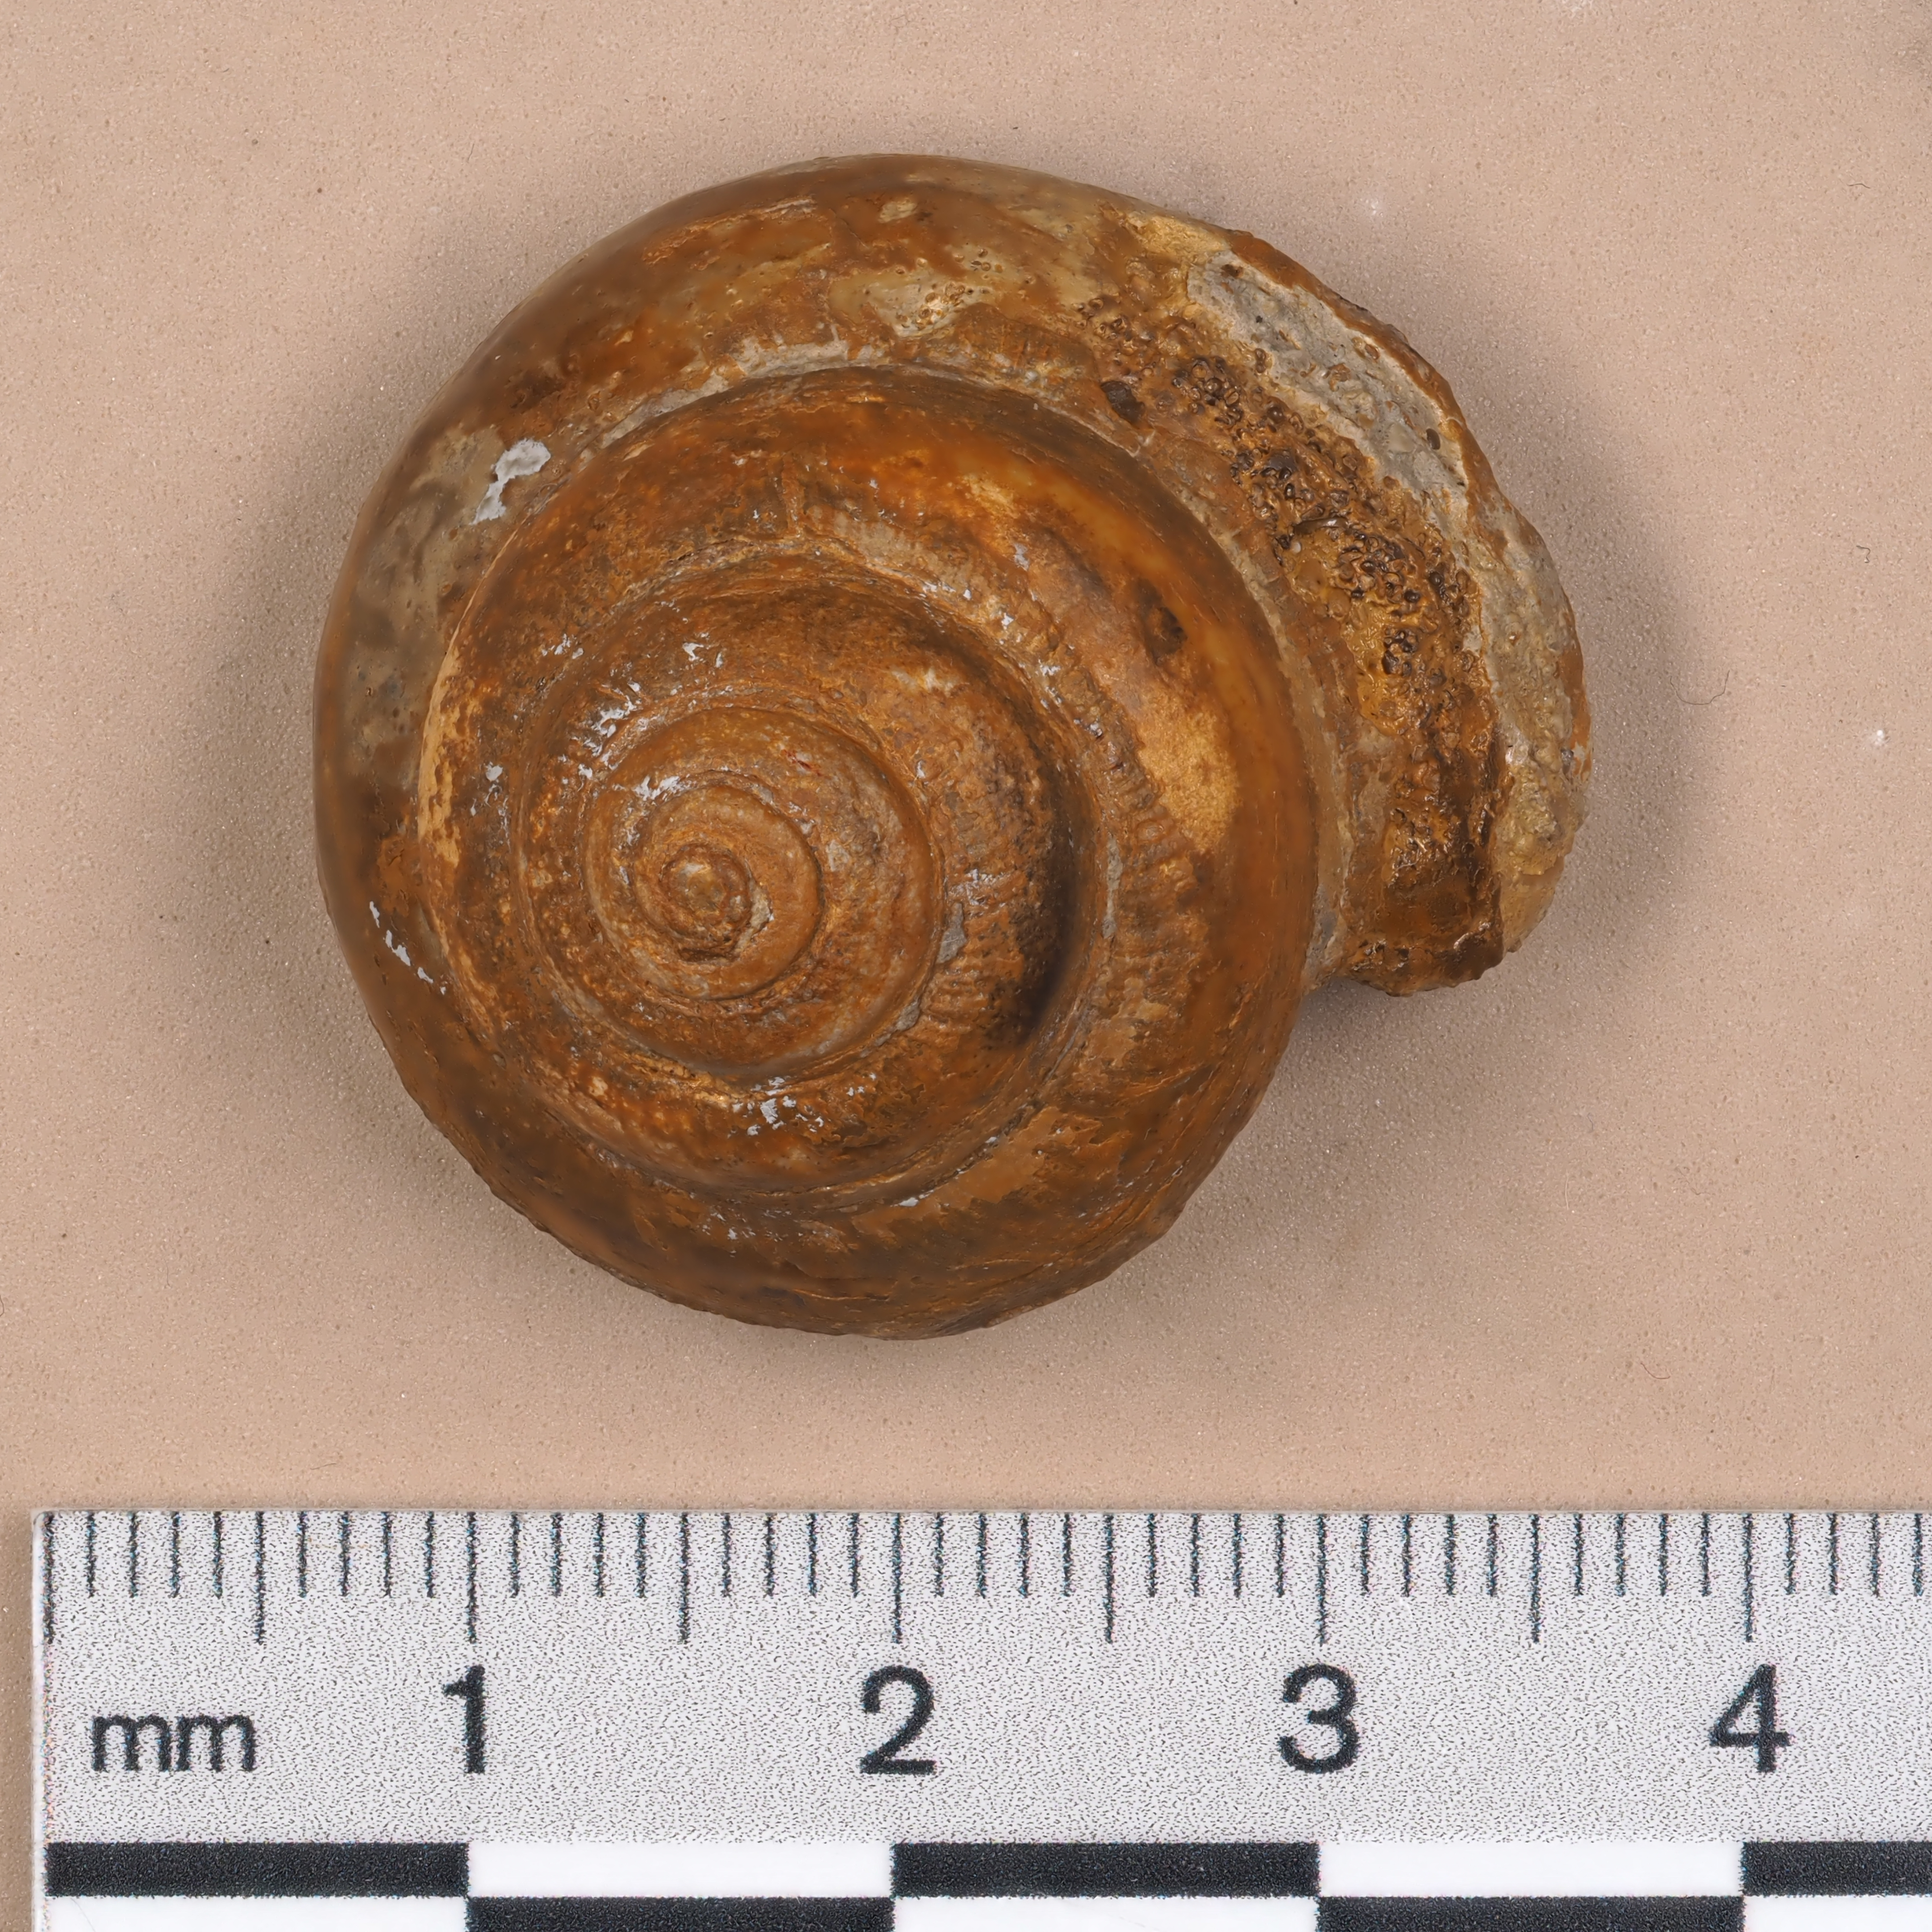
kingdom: Animalia
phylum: Mollusca
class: Gastropoda
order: Pleurotomariida
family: Pleurotomariidae
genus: Leptomaria
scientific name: Leptomaria
